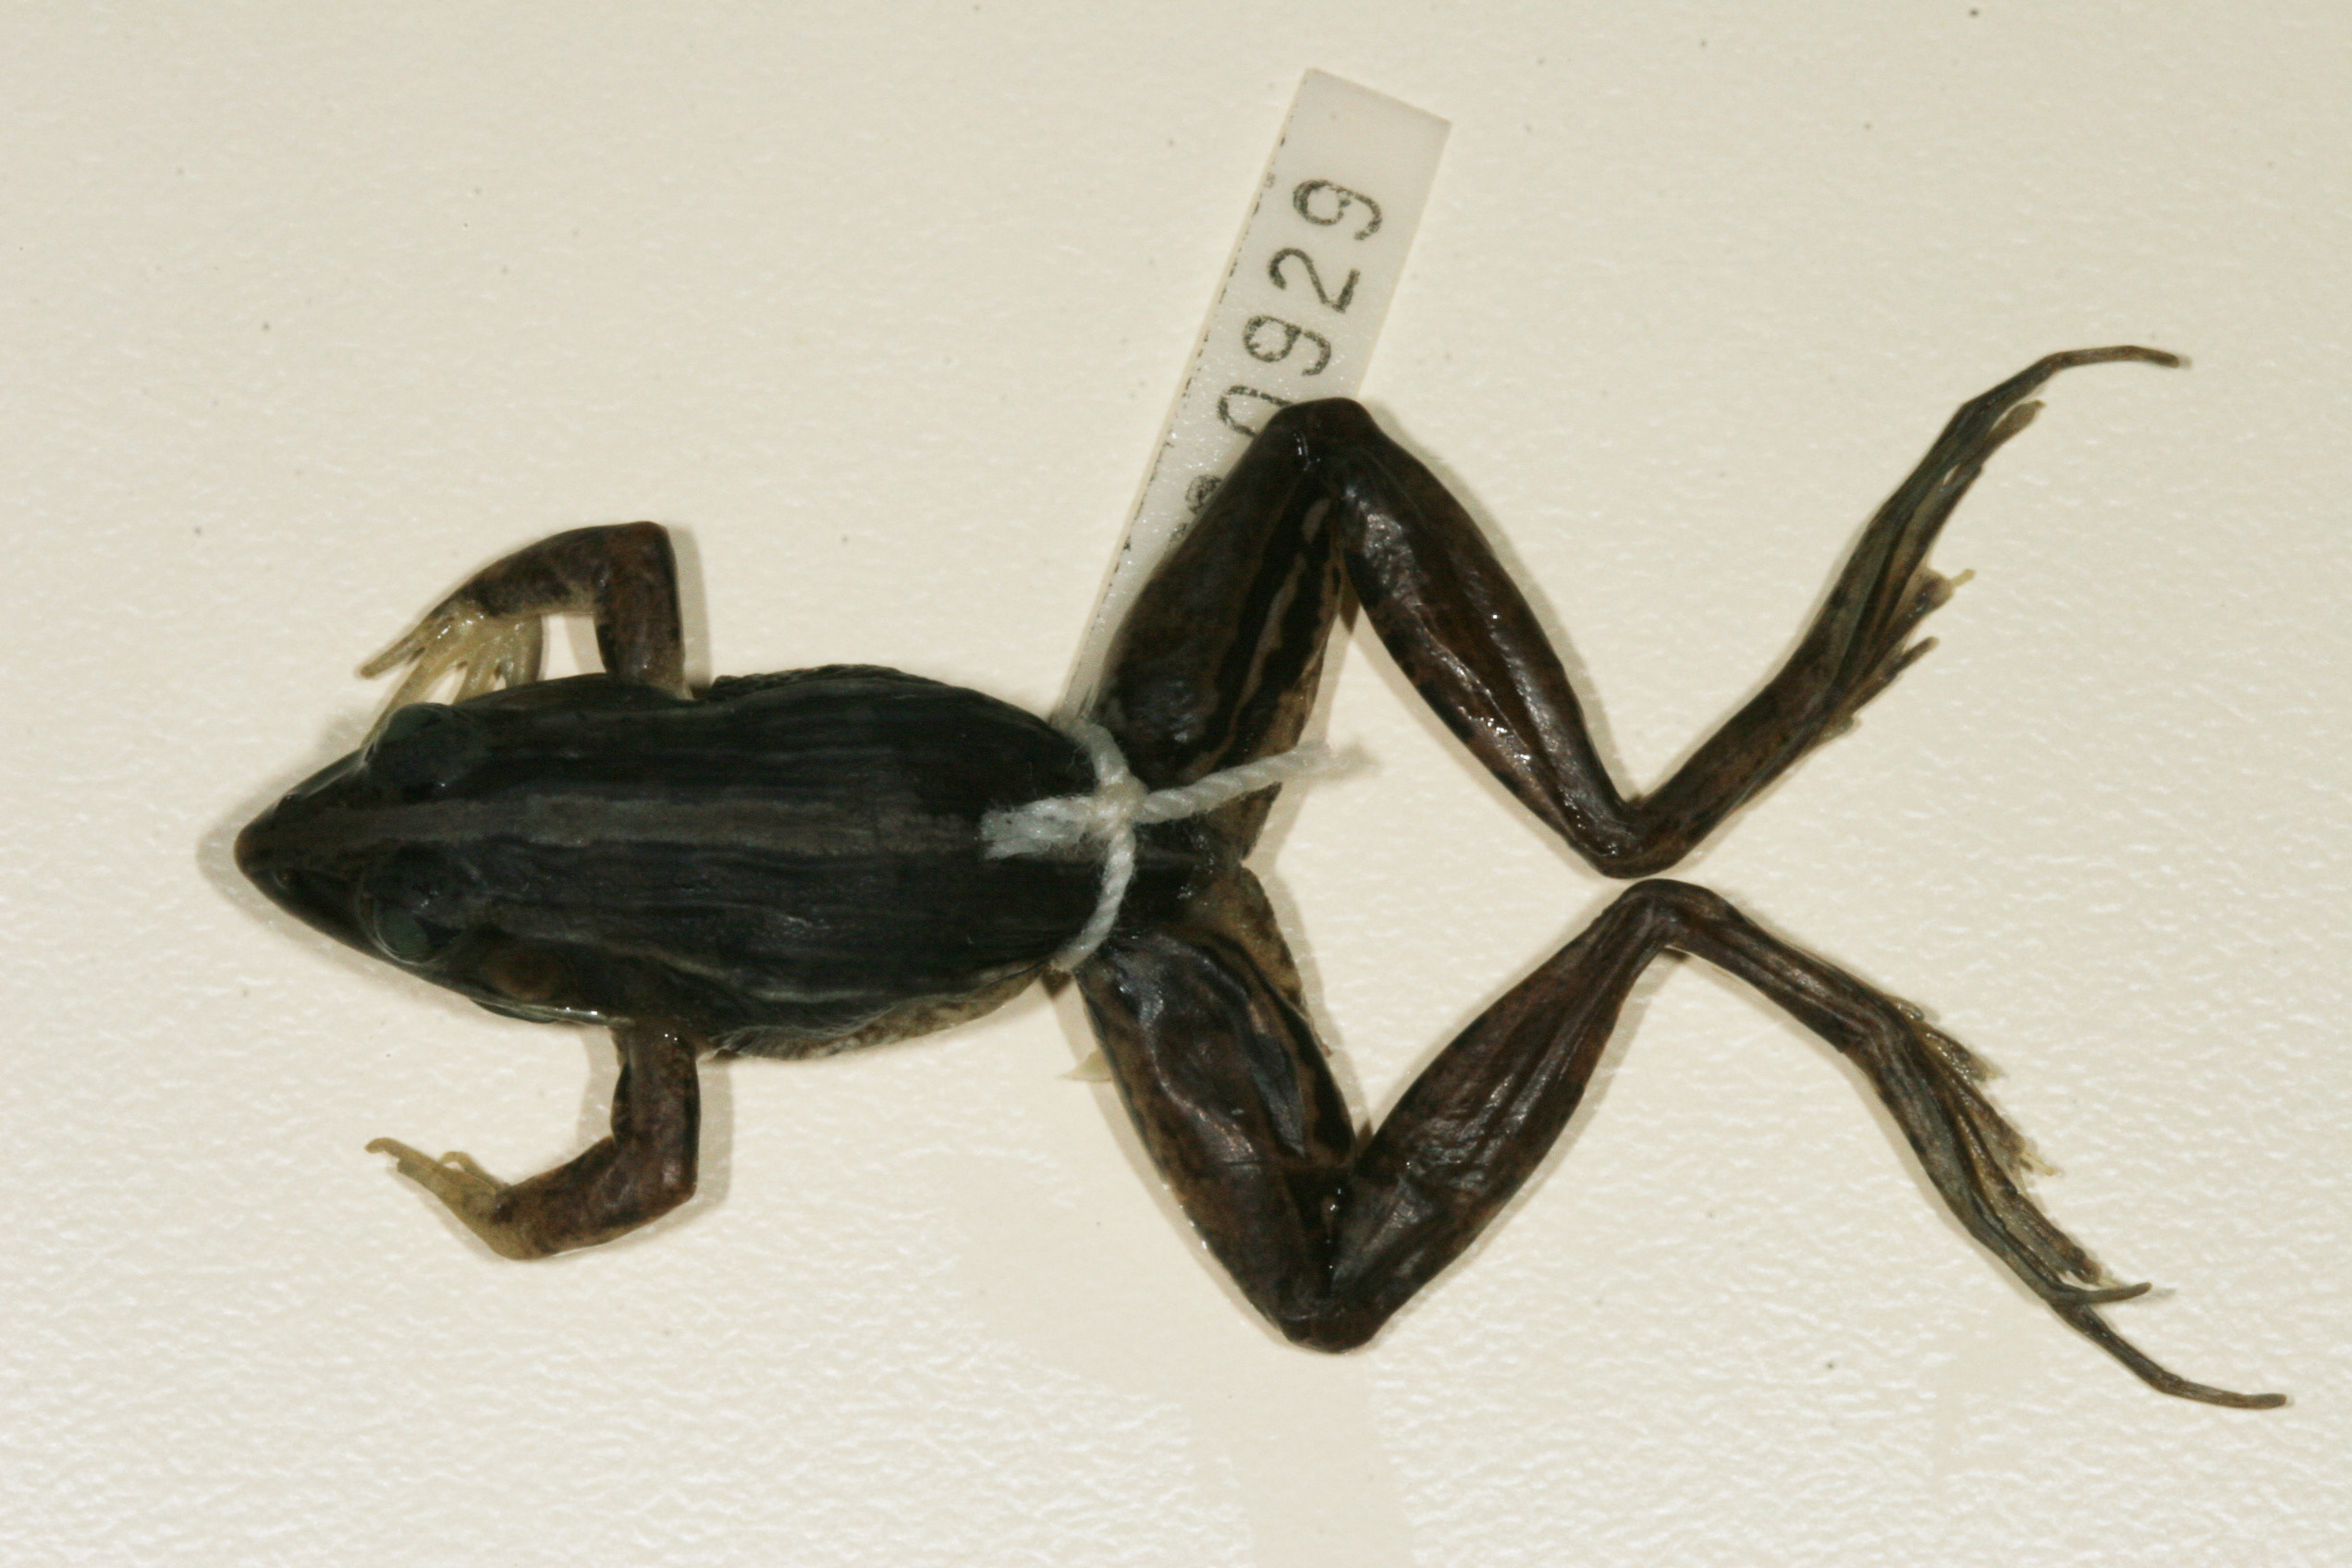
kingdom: Animalia
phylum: Chordata
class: Amphibia
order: Anura
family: Ptychadenidae
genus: Ptychadena
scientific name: Ptychadena mascareniensis
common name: Mascarene grass frog
